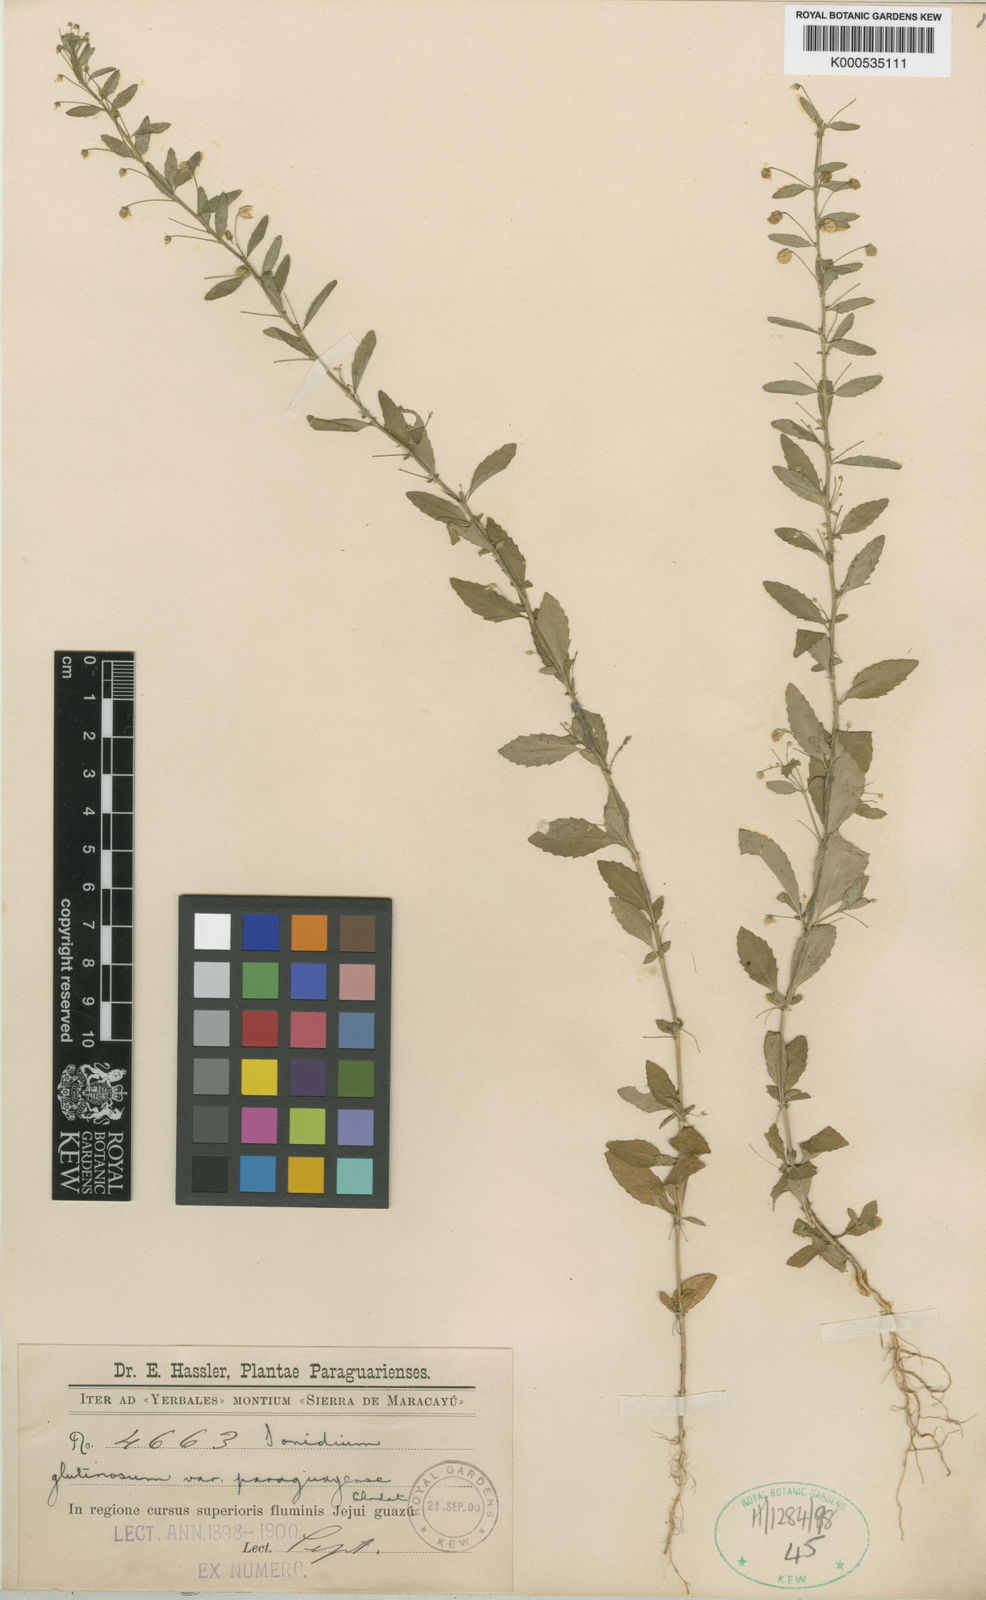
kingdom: Plantae
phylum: Tracheophyta
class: Magnoliopsida
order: Malpighiales
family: Violaceae
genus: Pombalia
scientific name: Pombalia parviflora
